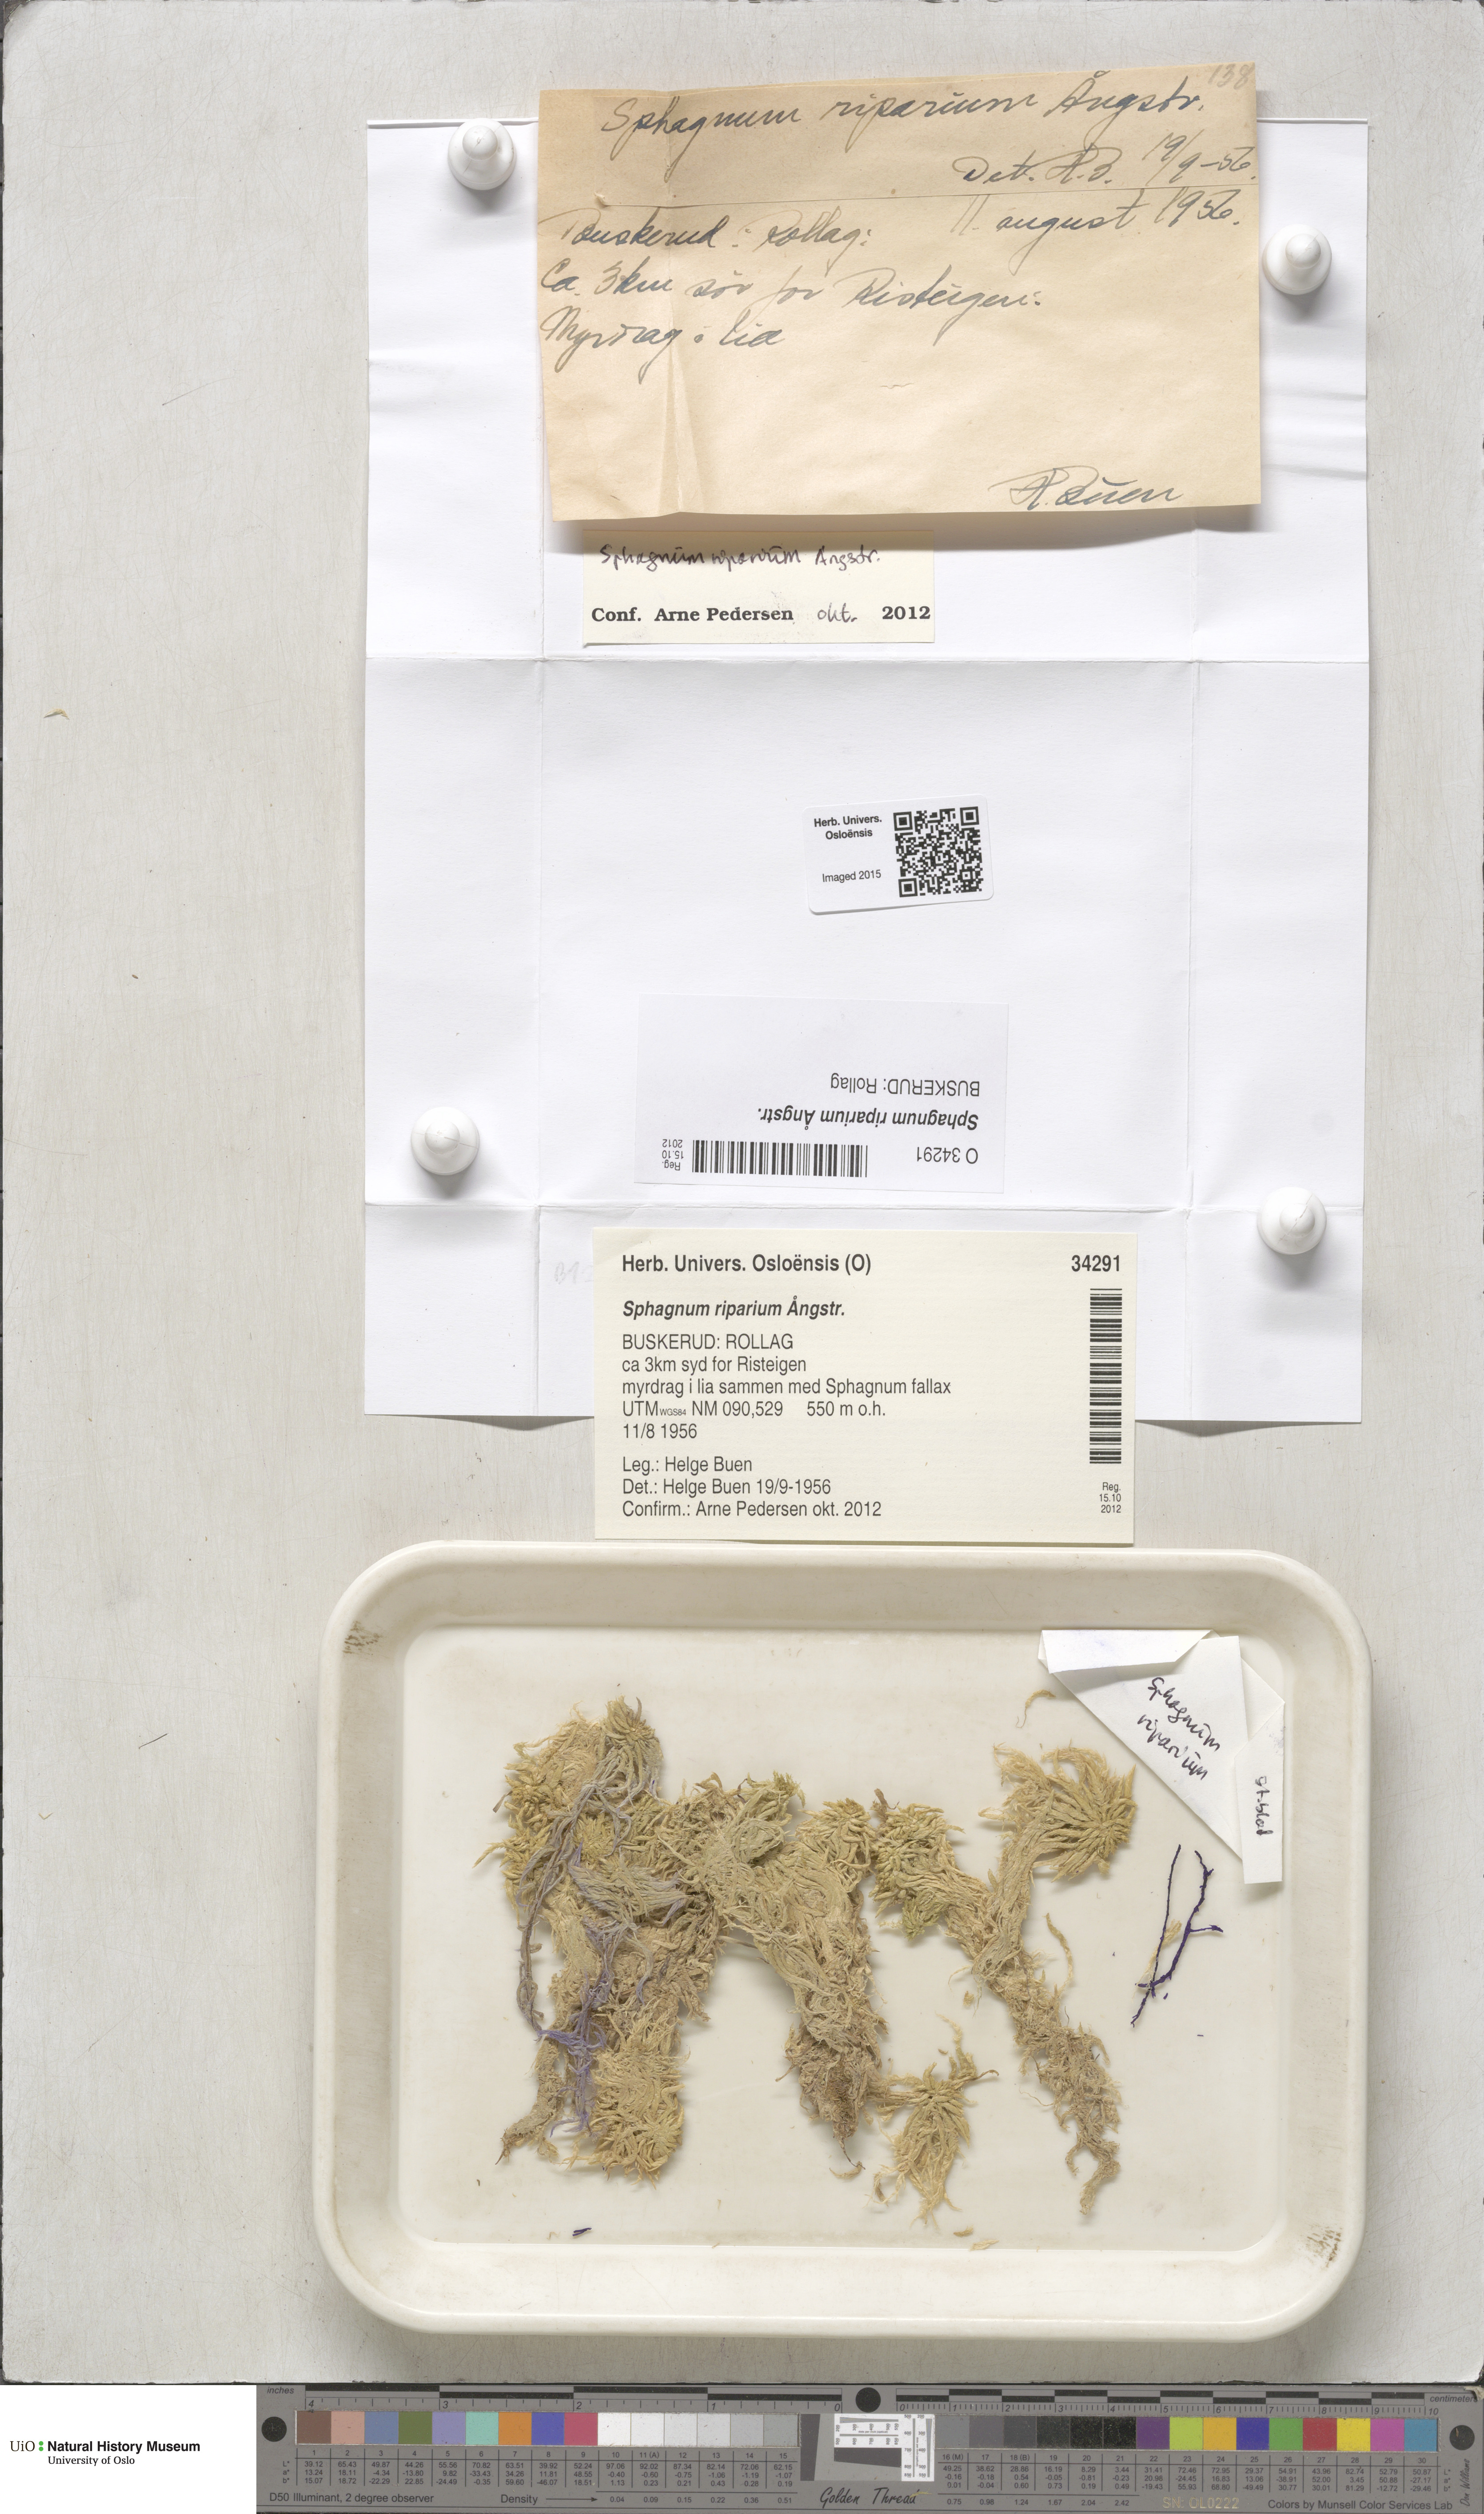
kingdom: Plantae
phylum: Bryophyta
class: Sphagnopsida
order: Sphagnales
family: Sphagnaceae
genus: Sphagnum
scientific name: Sphagnum riparium
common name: Streamside peat moss
